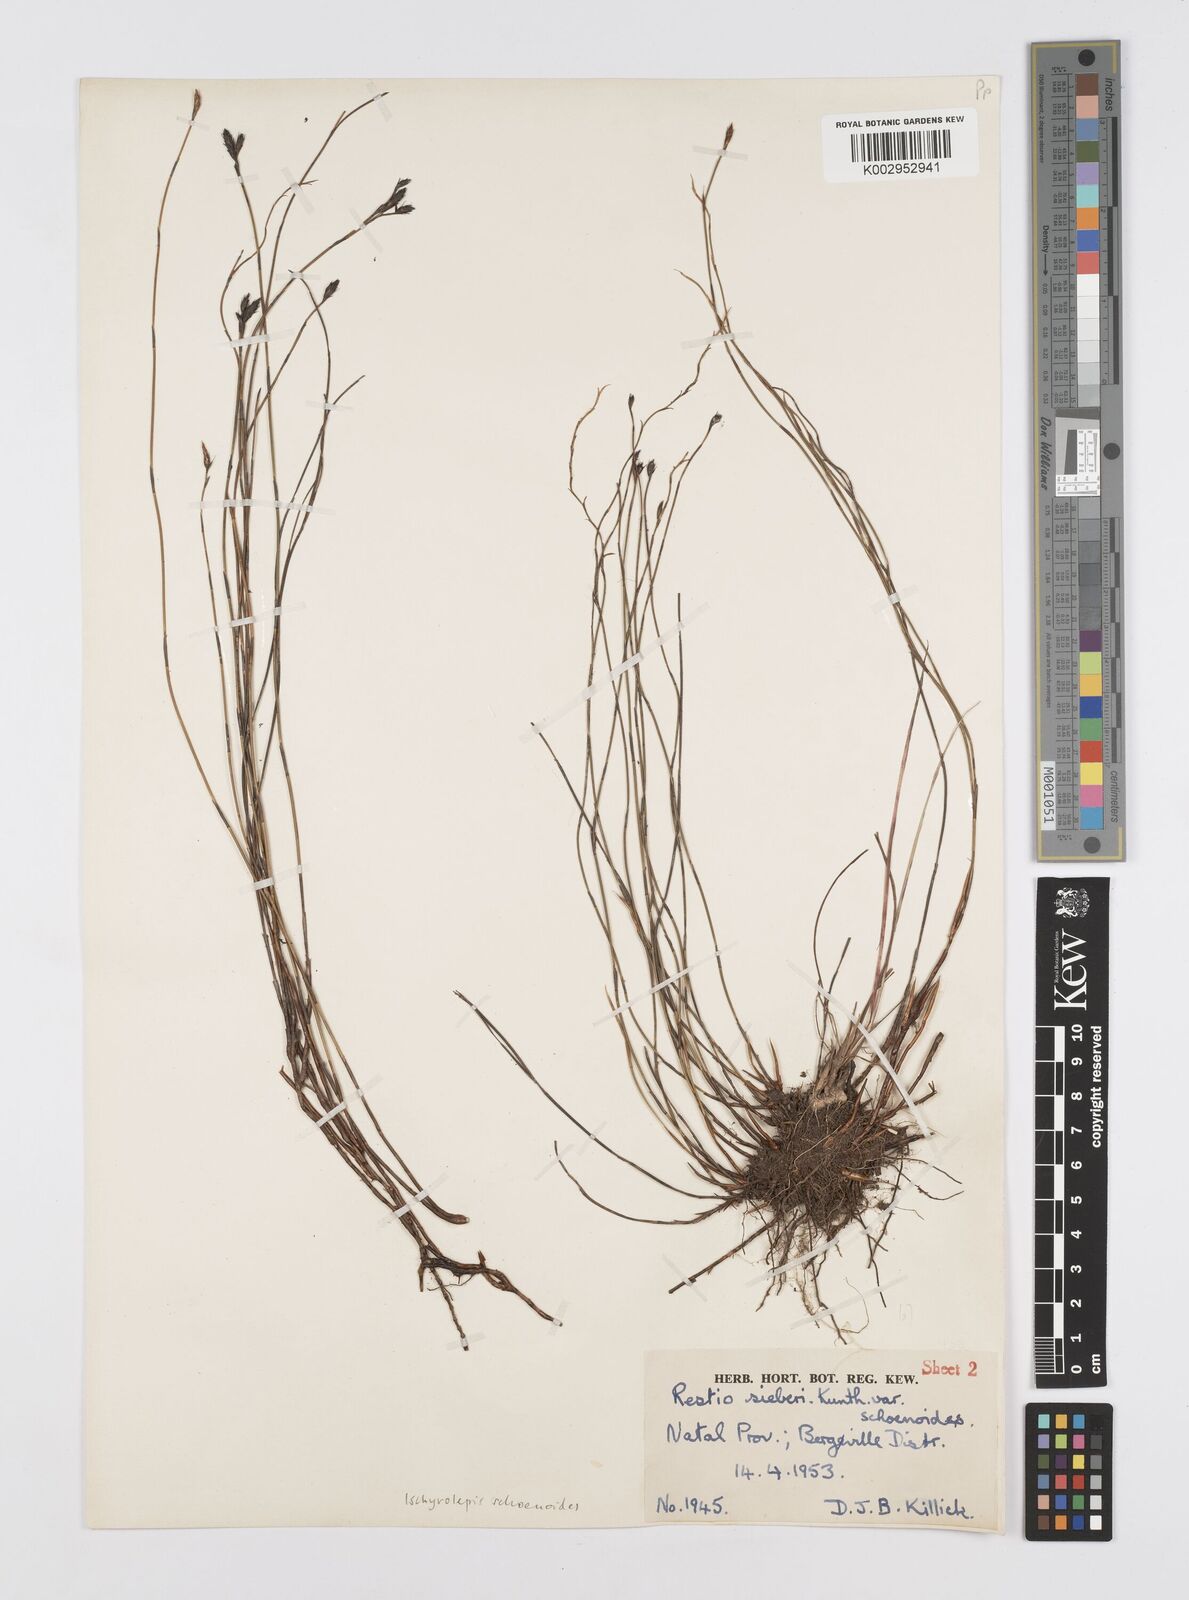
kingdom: Plantae
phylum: Tracheophyta
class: Liliopsida
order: Poales
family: Restionaceae
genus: Restio
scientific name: Restio schoenoides
